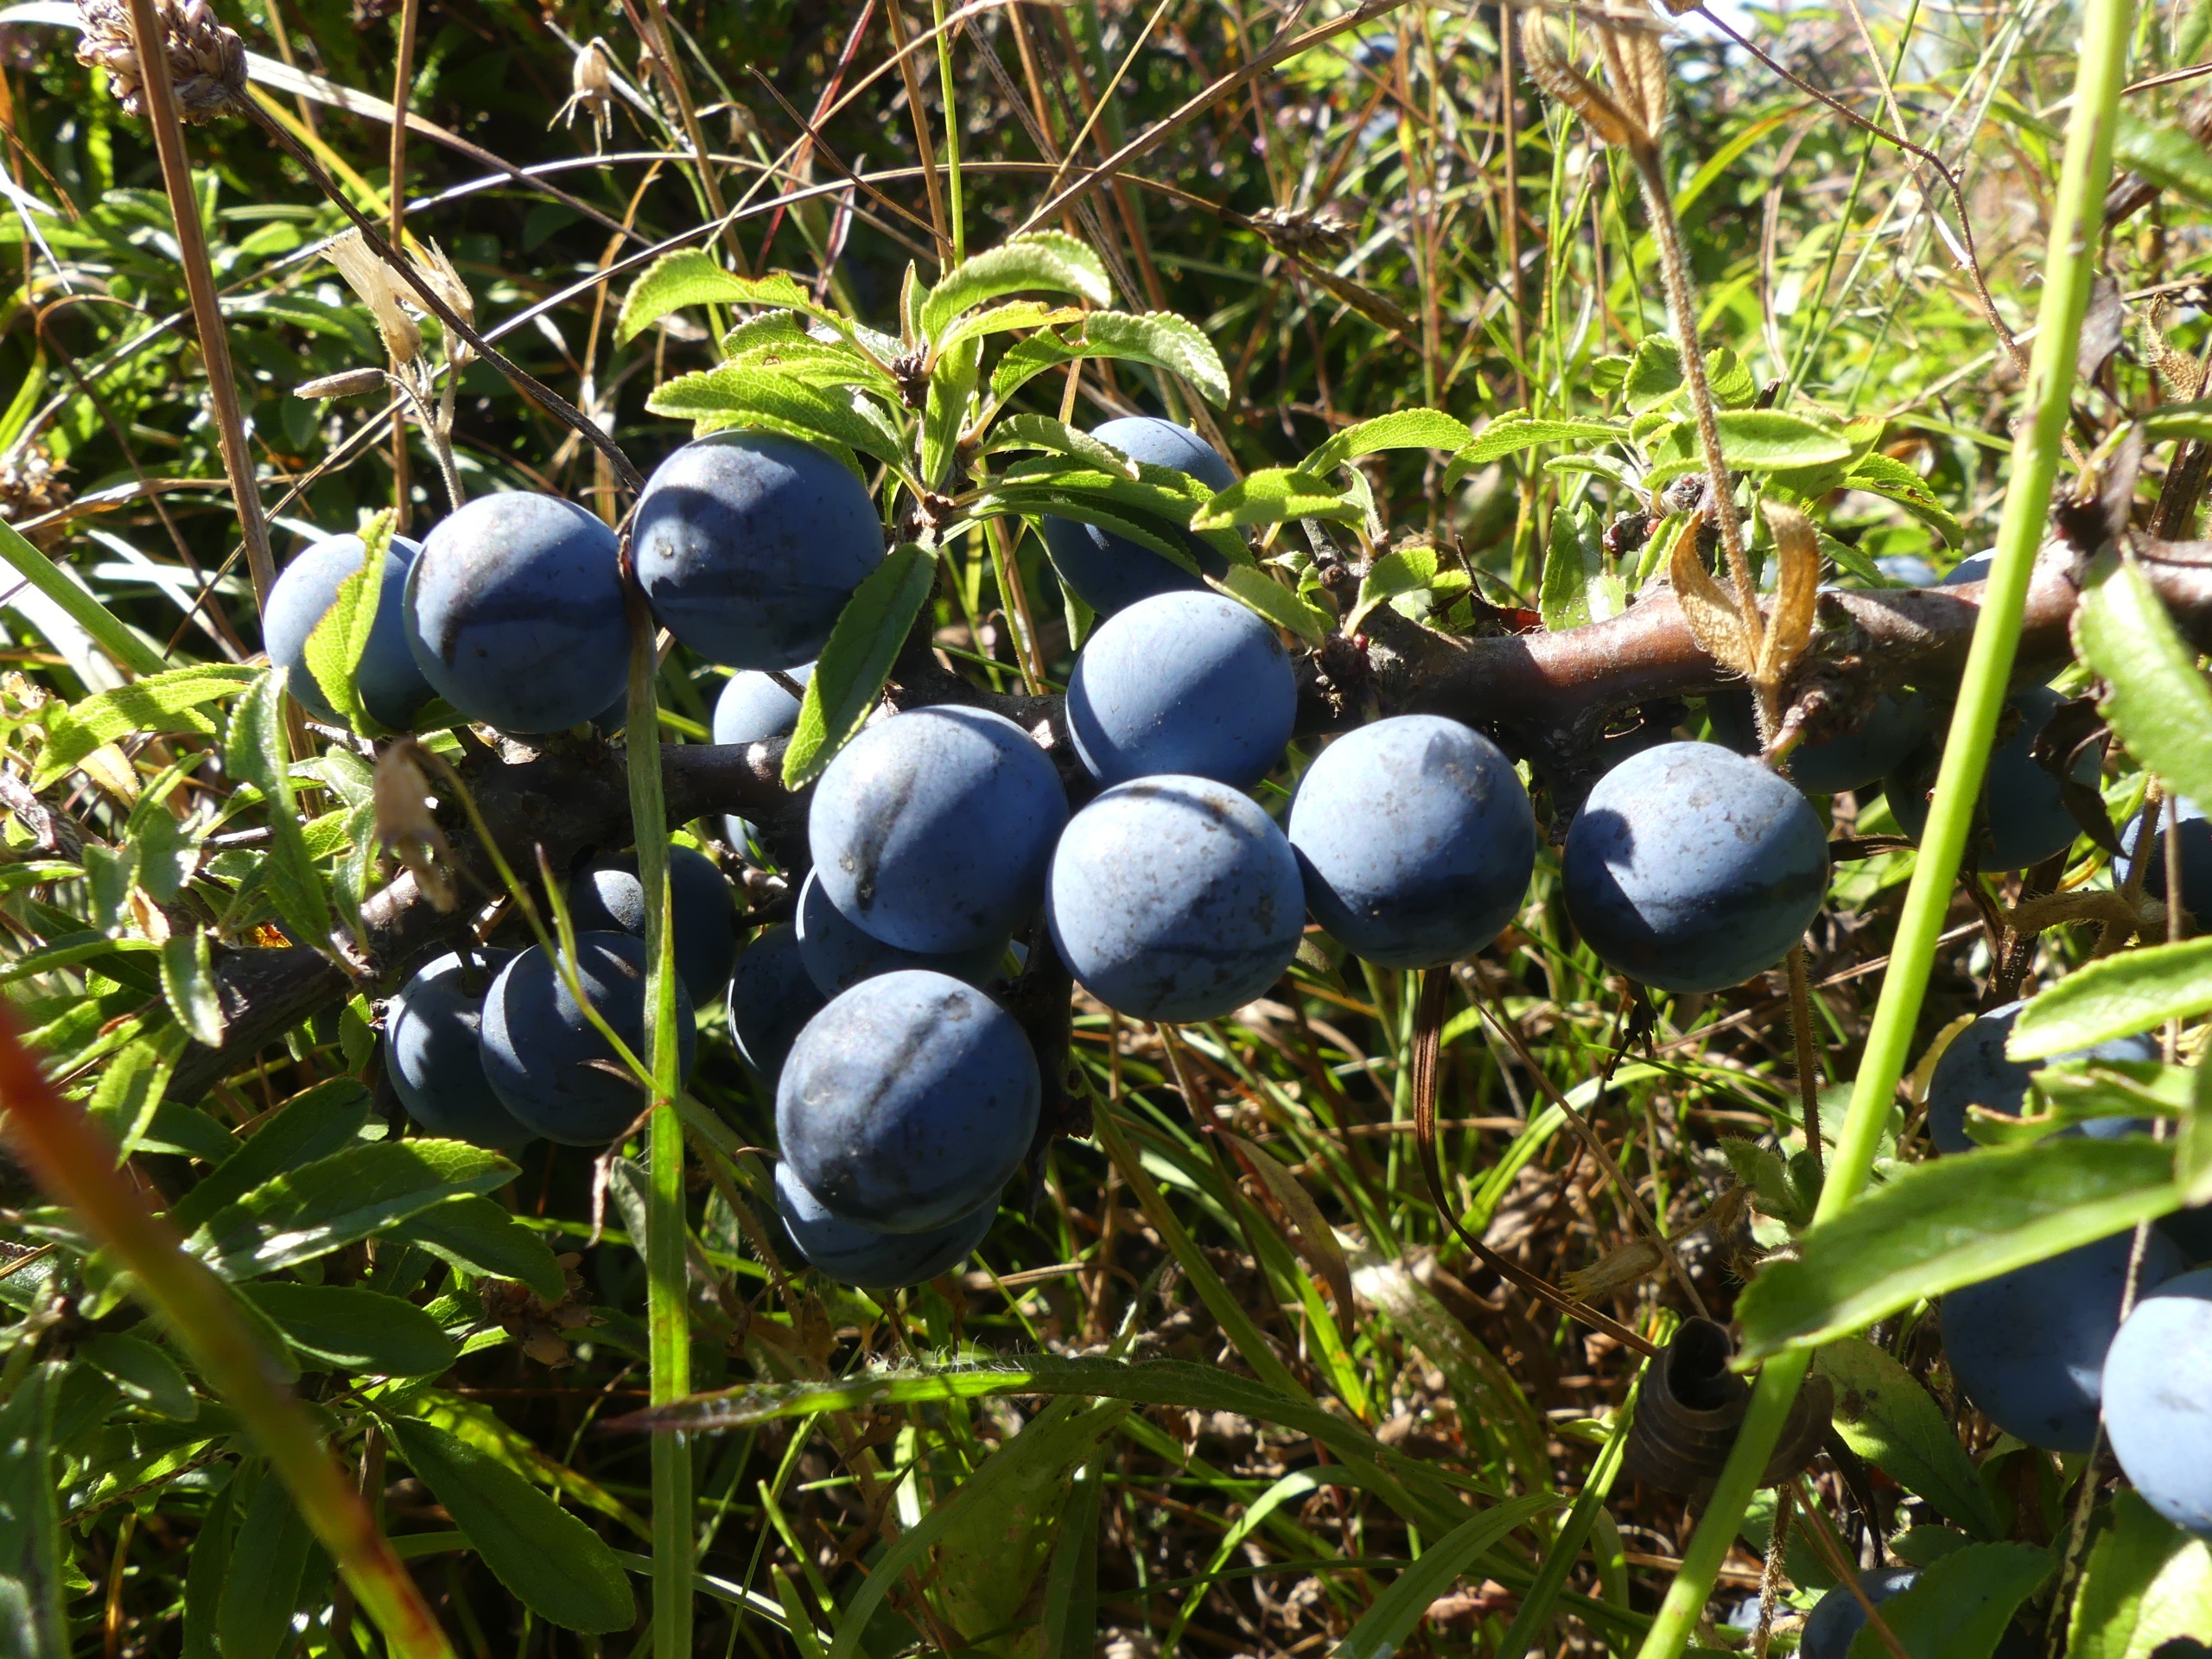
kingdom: Plantae
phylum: Tracheophyta
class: Magnoliopsida
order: Rosales
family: Rosaceae
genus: Prunus
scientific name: Prunus domestica
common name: Kræge
